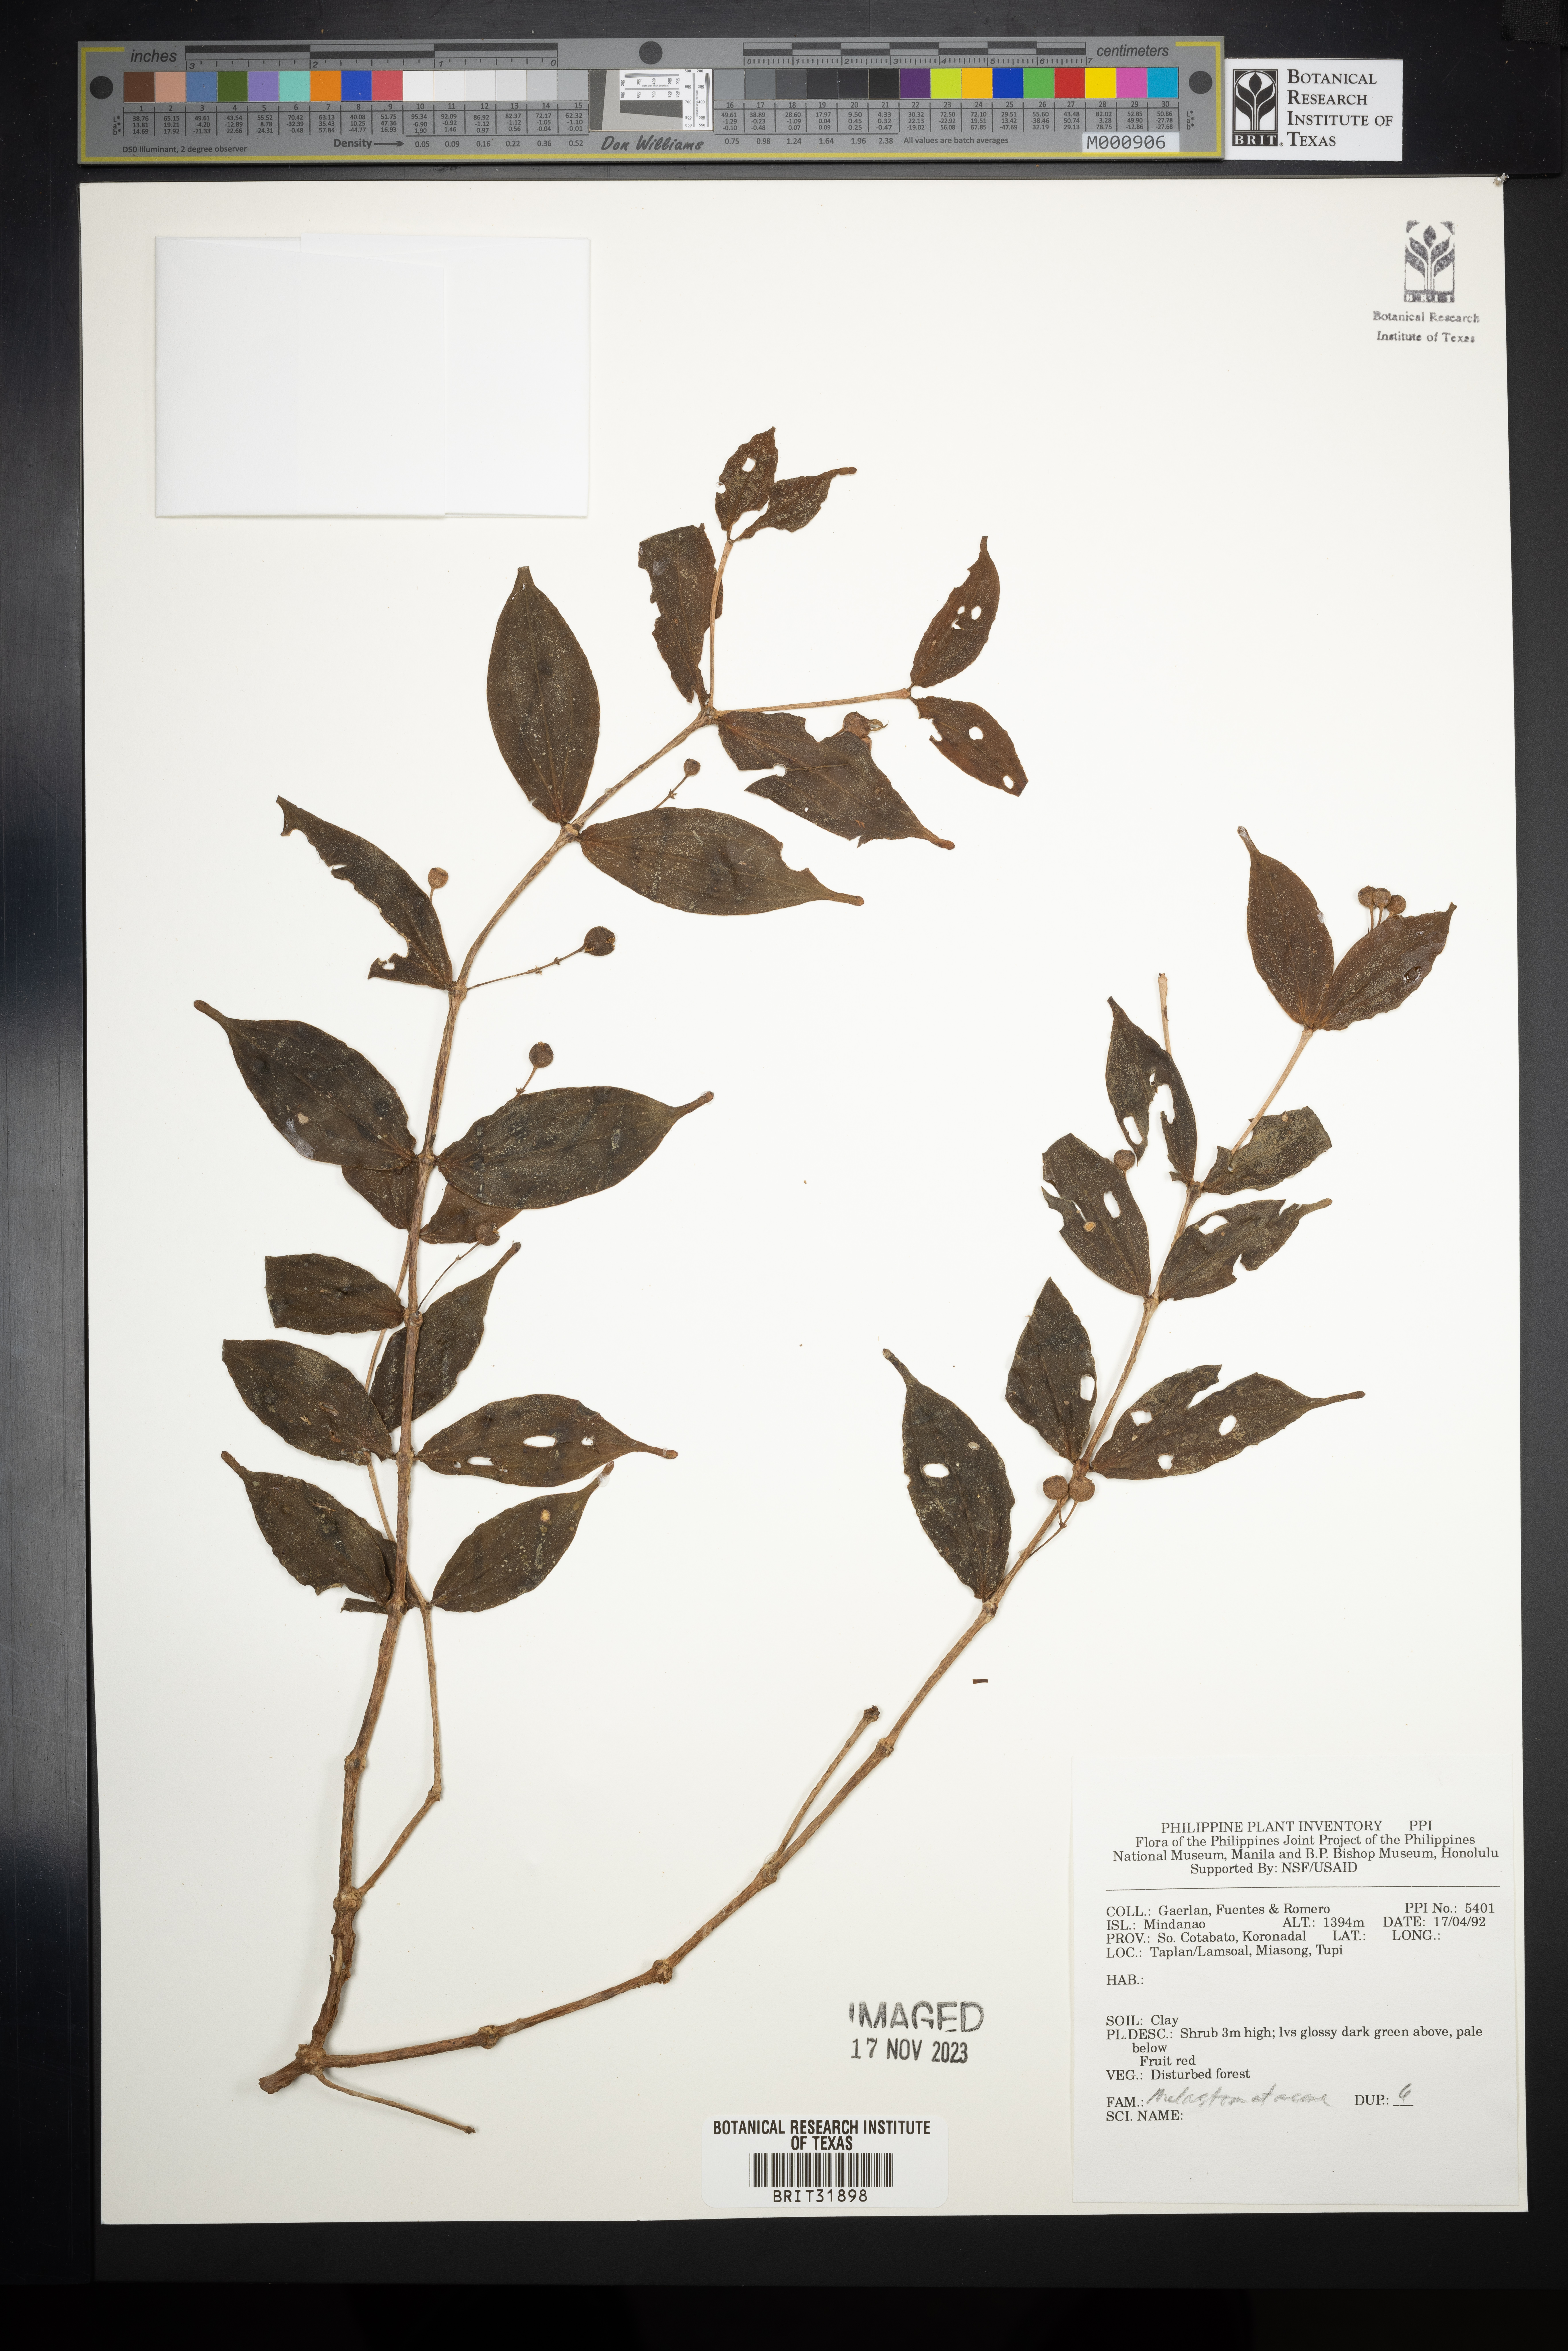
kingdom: Plantae
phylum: Tracheophyta
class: Magnoliopsida
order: Myrtales
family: Melastomataceae
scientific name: Melastomataceae
